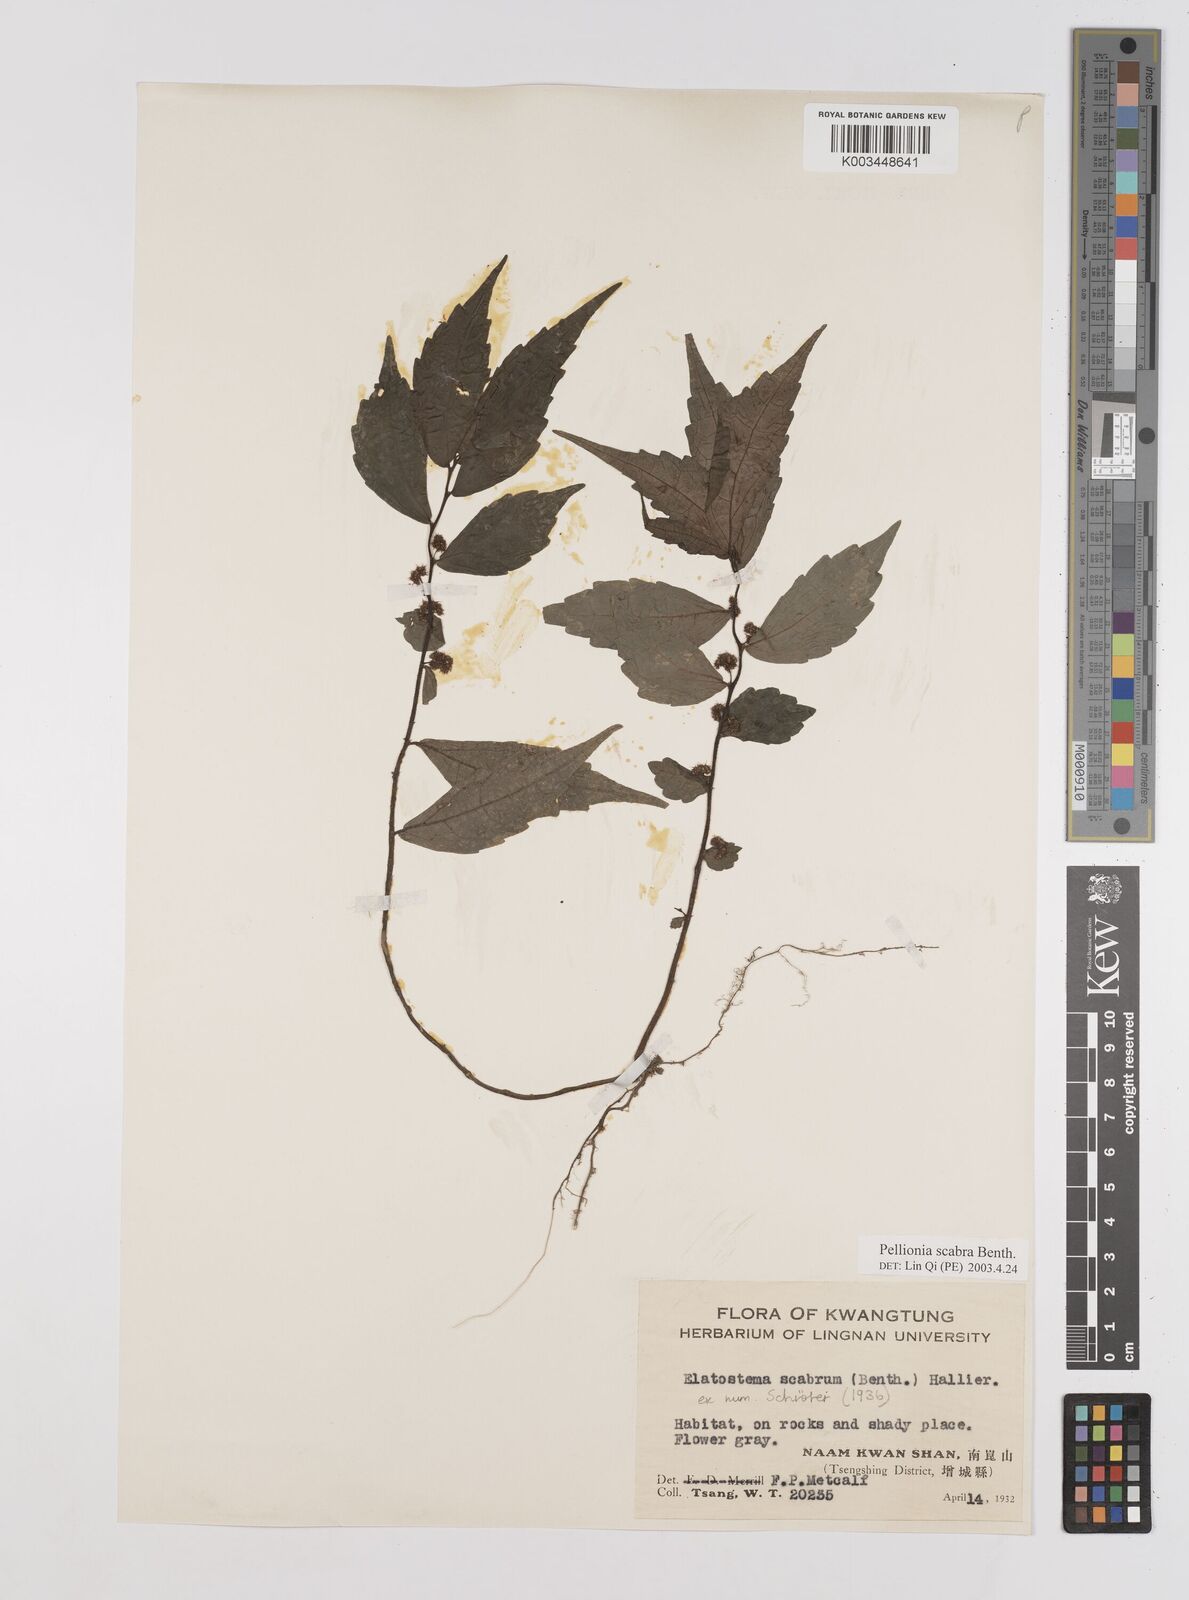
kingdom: Plantae
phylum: Tracheophyta
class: Magnoliopsida
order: Rosales
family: Urticaceae
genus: Elatostema
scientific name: Elatostema
